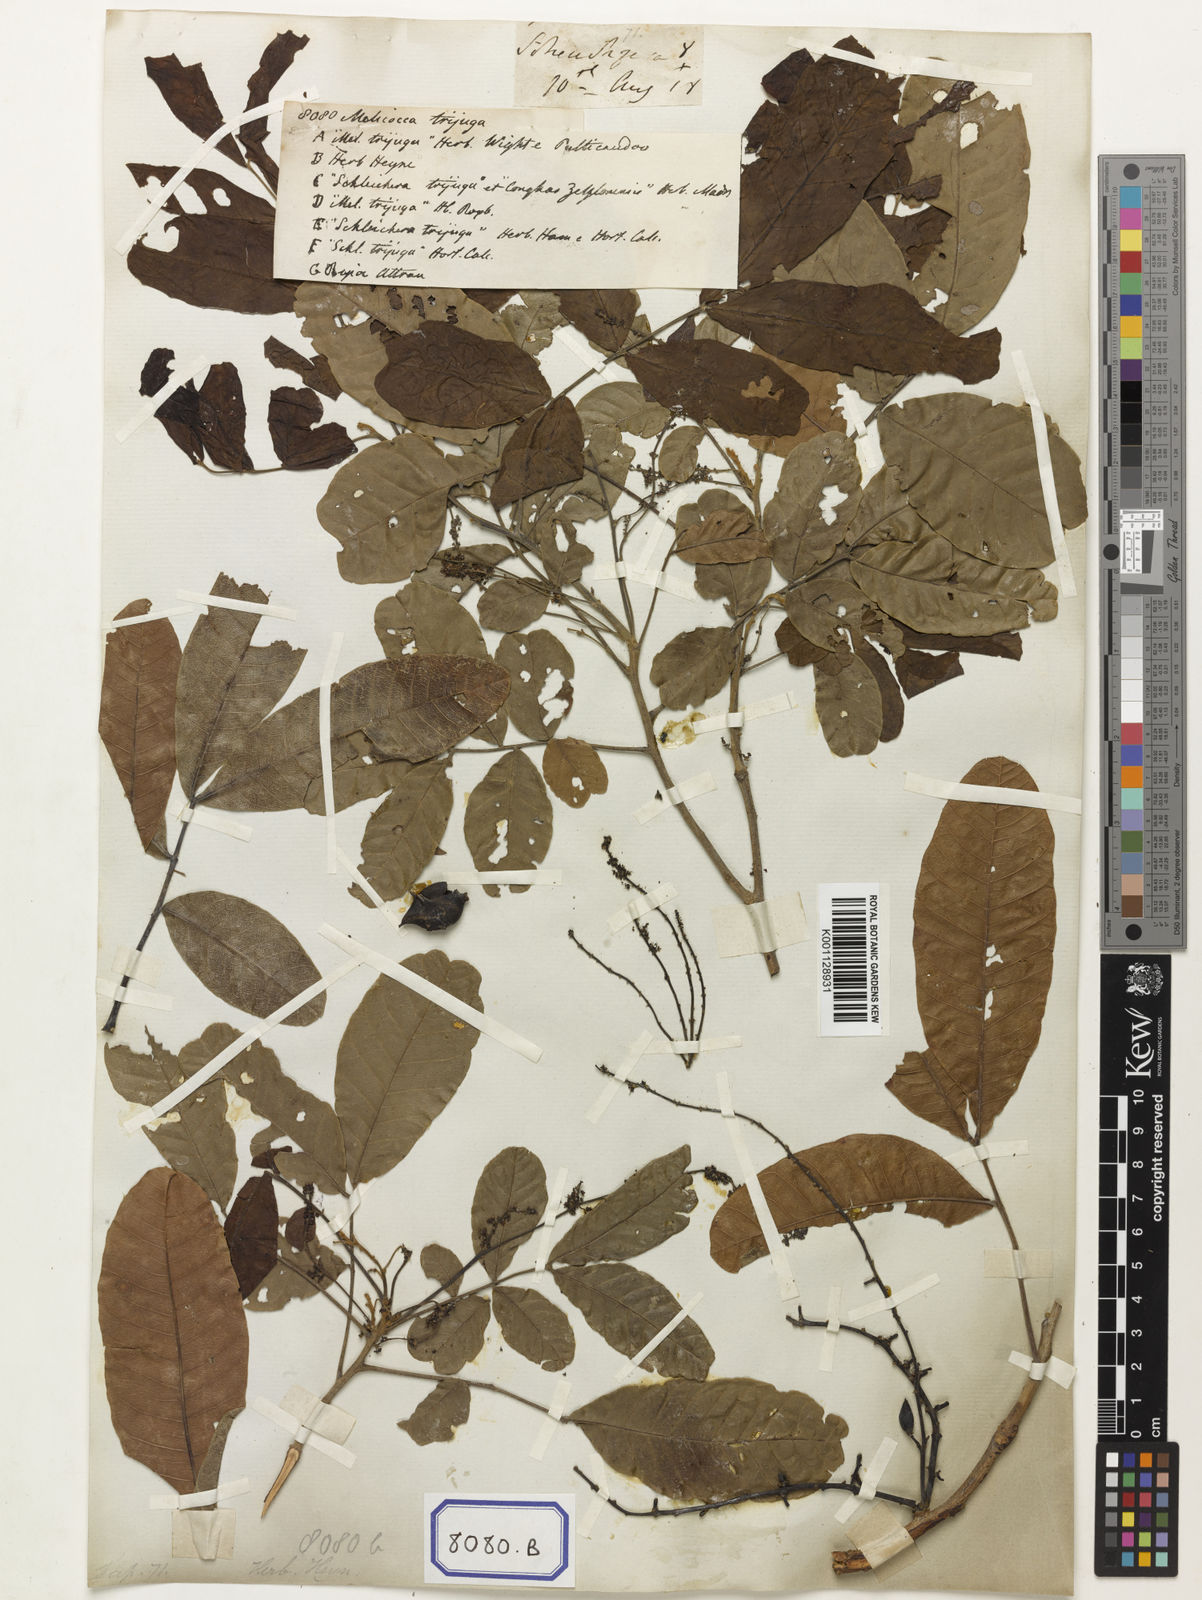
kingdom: Plantae
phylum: Tracheophyta
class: Magnoliopsida
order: Sapindales
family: Sapindaceae
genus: Schleichera
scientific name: Schleichera oleosa
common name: Malay lactree
